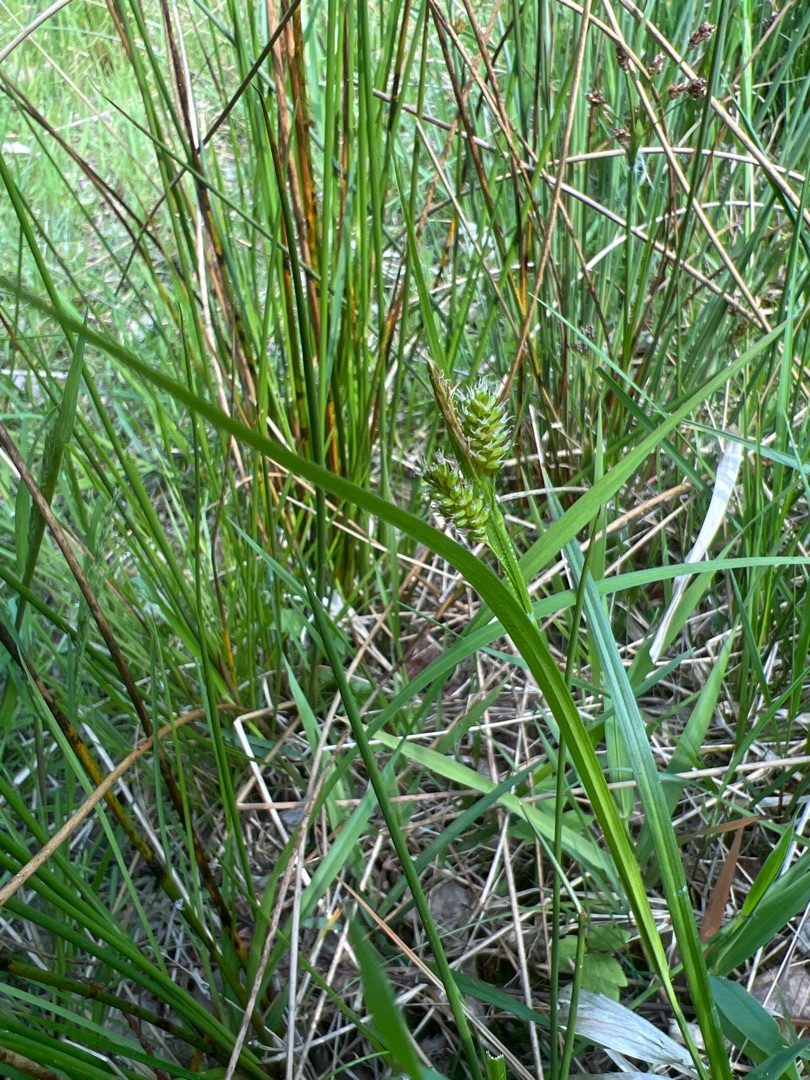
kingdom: Plantae
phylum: Tracheophyta
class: Liliopsida
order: Poales
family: Cyperaceae
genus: Carex
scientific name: Carex pallescens
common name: Bleg star
